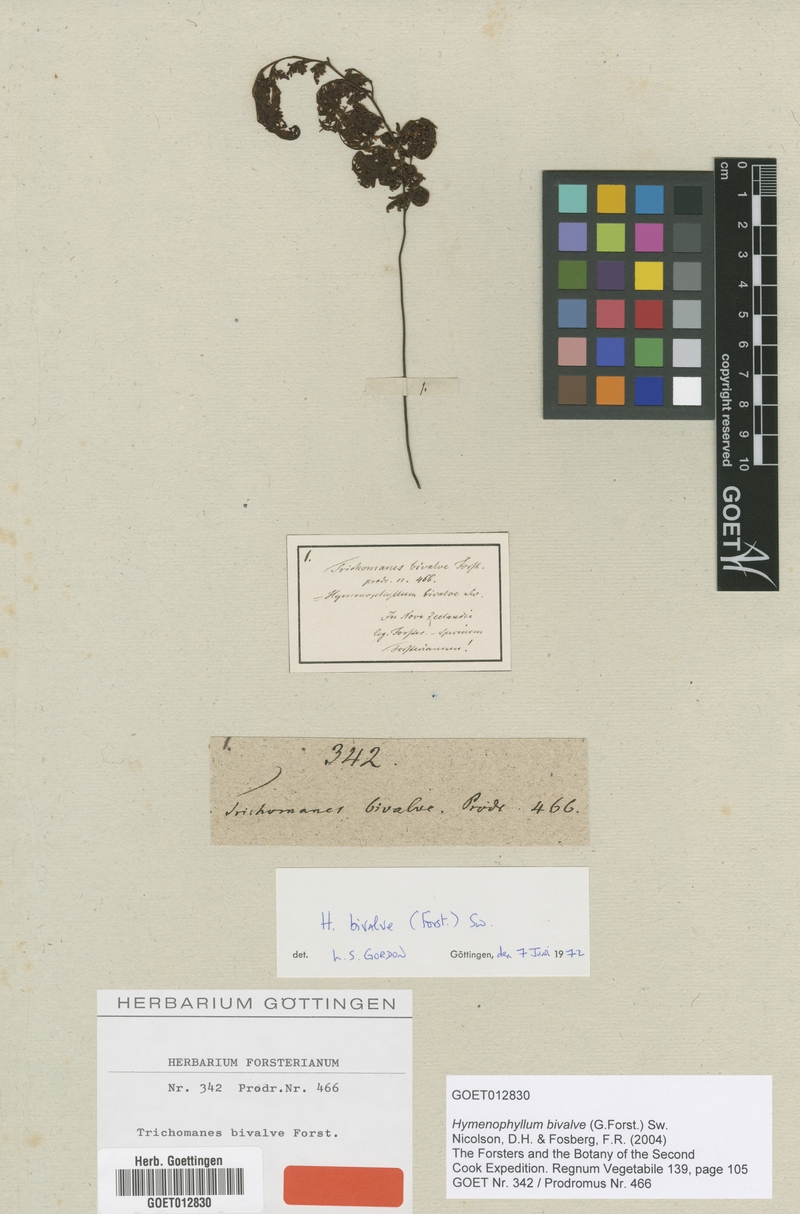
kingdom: Plantae
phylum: Tracheophyta
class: Polypodiopsida
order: Hymenophyllales
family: Hymenophyllaceae
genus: Hymenophyllum
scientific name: Hymenophyllum bivalve
